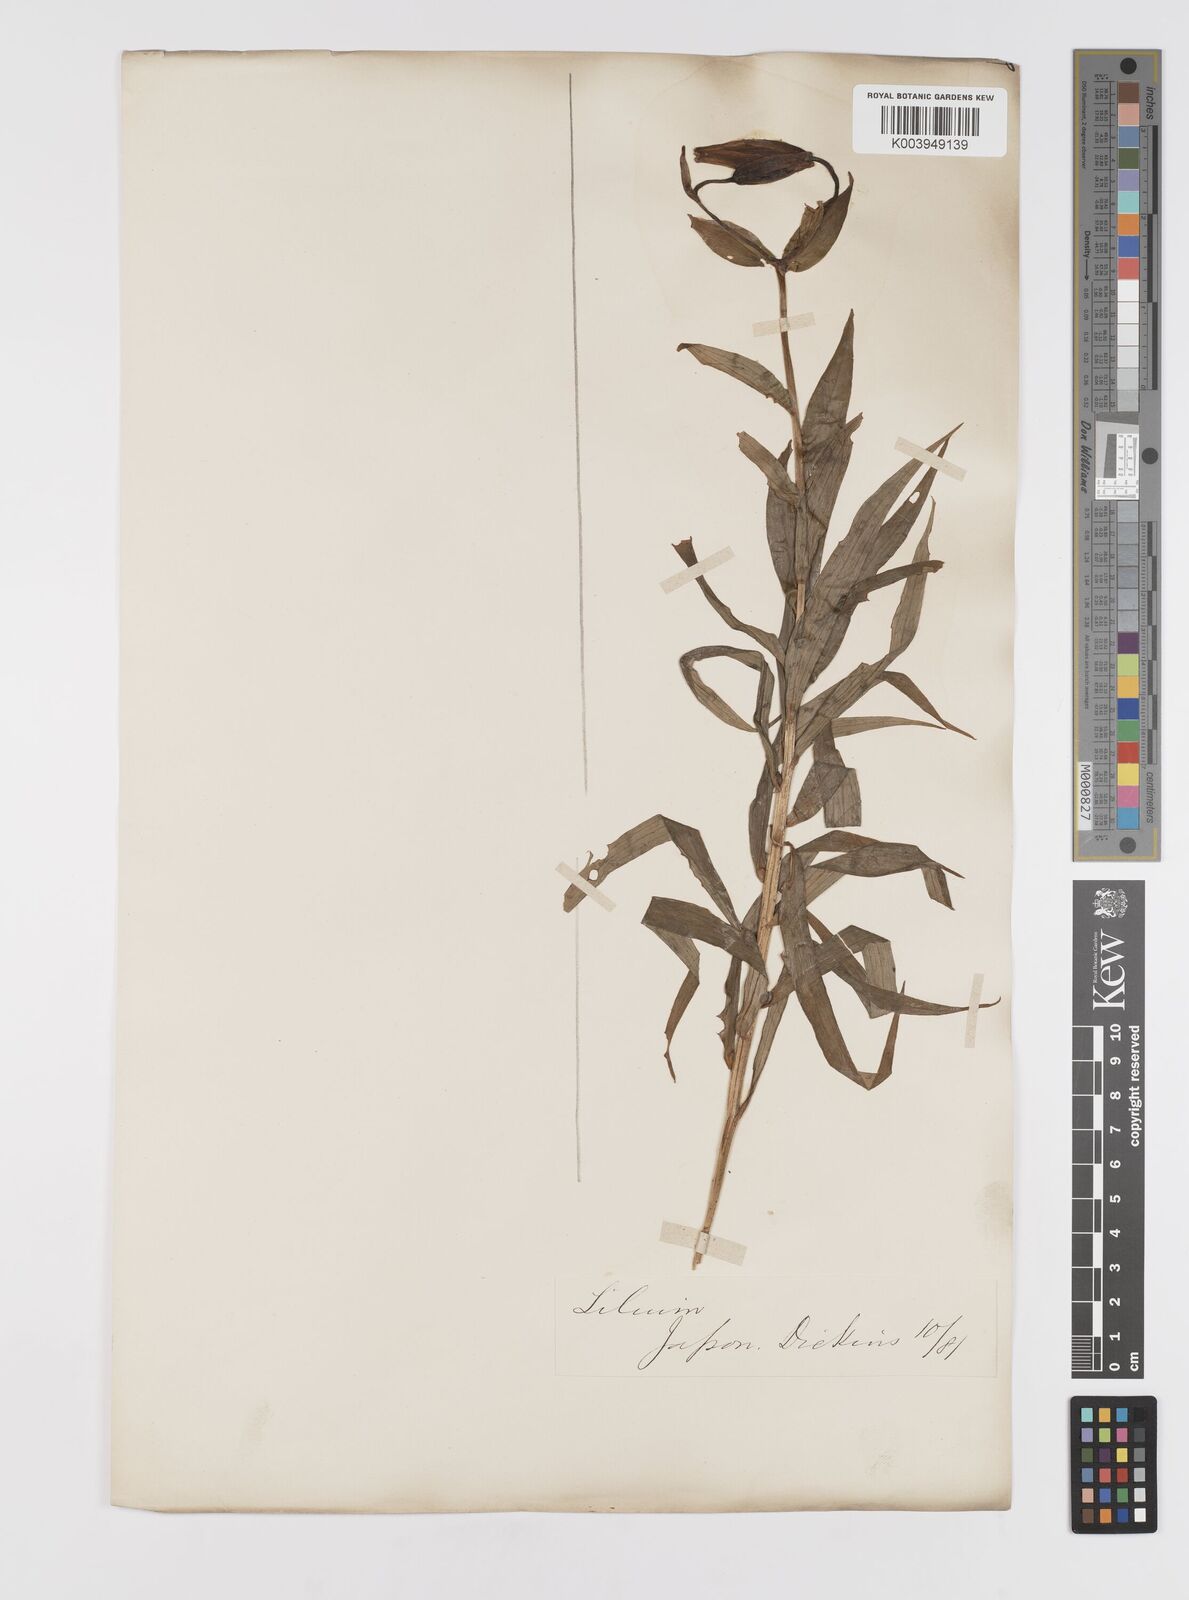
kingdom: Plantae
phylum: Tracheophyta
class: Liliopsida
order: Liliales
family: Liliaceae
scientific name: Liliaceae
